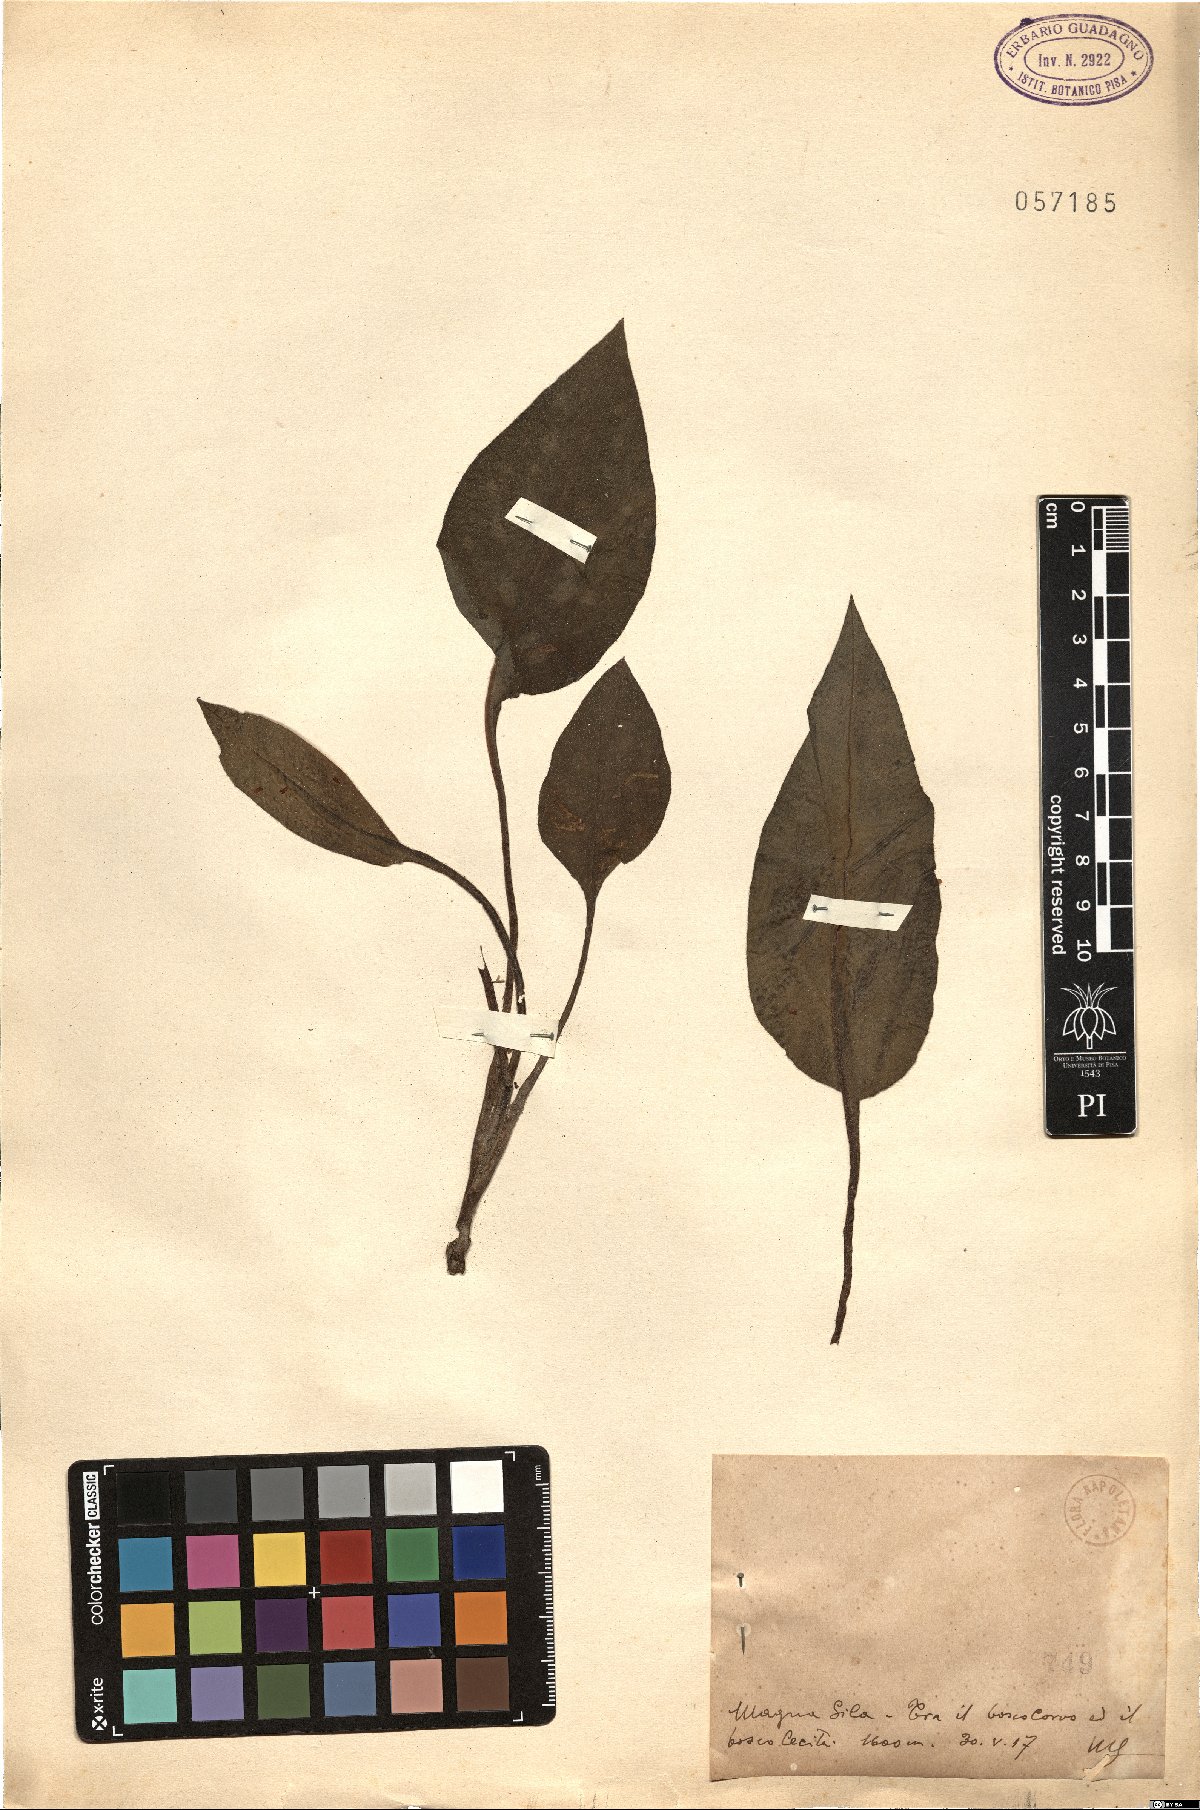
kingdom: Plantae
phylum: Tracheophyta
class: Magnoliopsida
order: Boraginales
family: Boraginaceae
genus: Pulmonaria
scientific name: Pulmonaria
